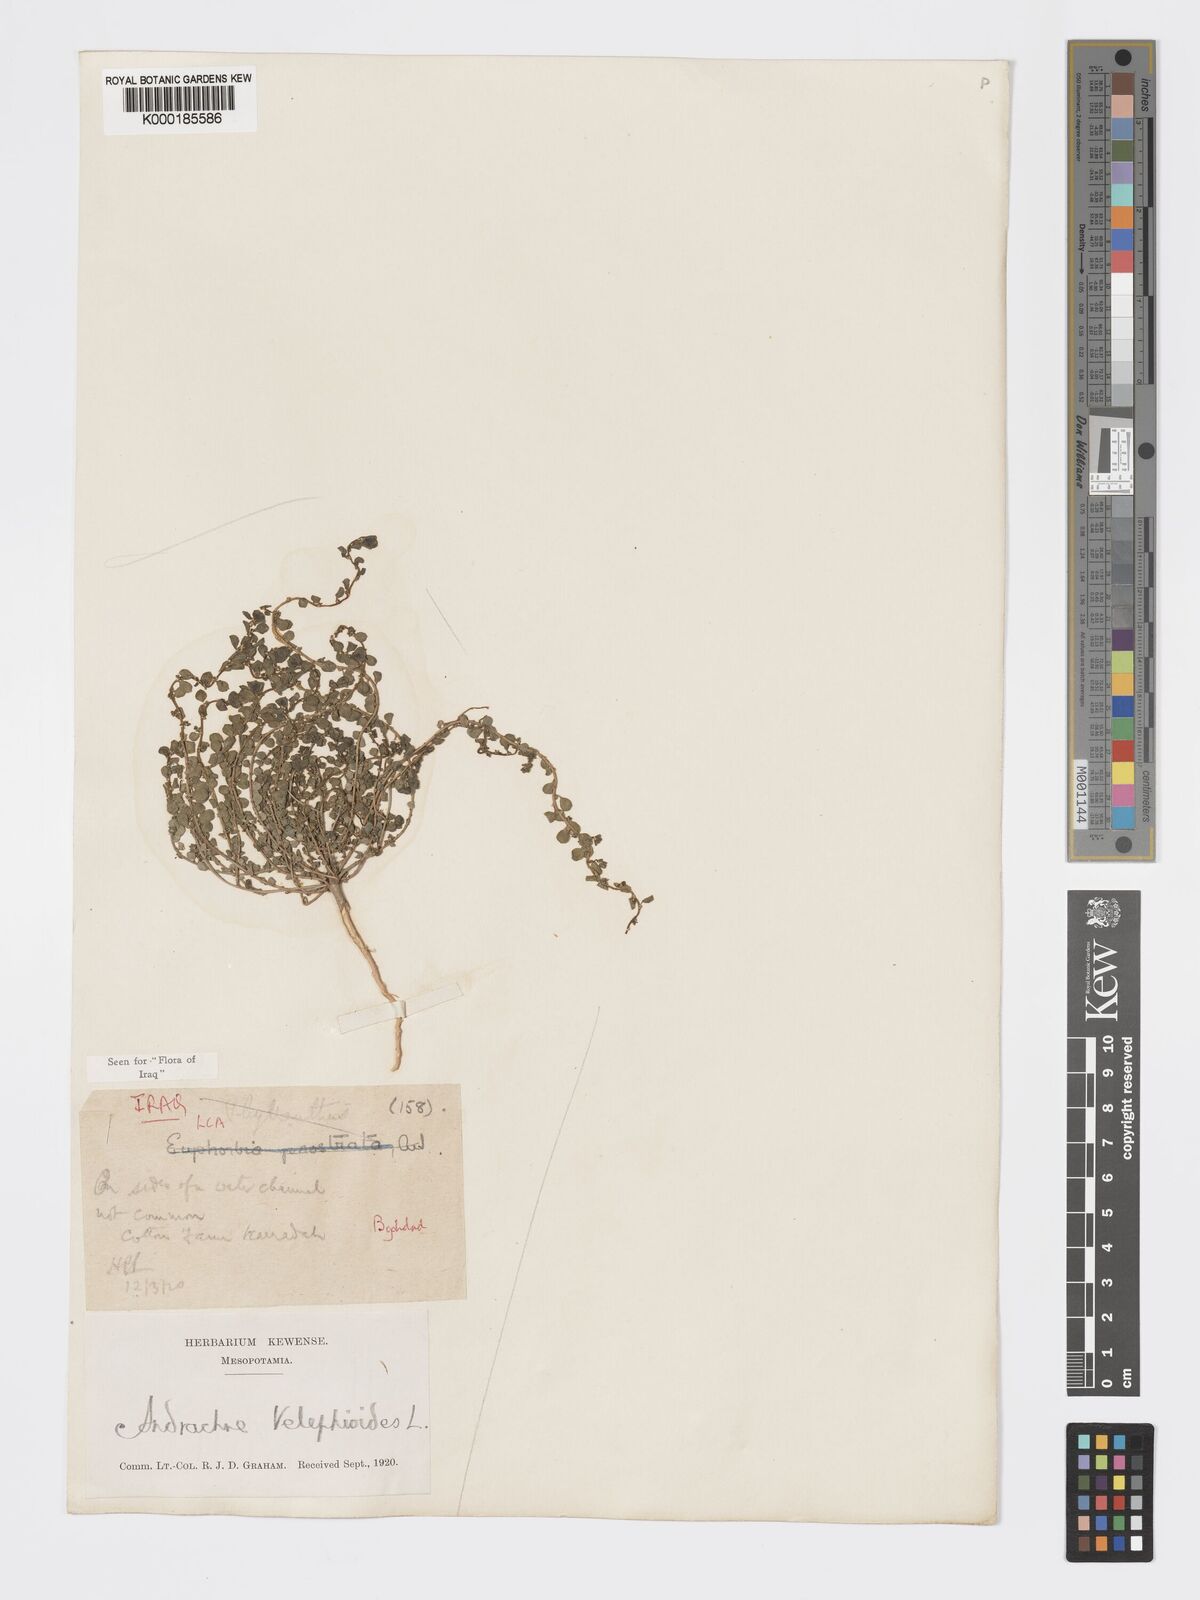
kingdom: Plantae
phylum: Tracheophyta
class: Magnoliopsida
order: Malpighiales
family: Phyllanthaceae
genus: Andrachne
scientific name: Andrachne telephioides
